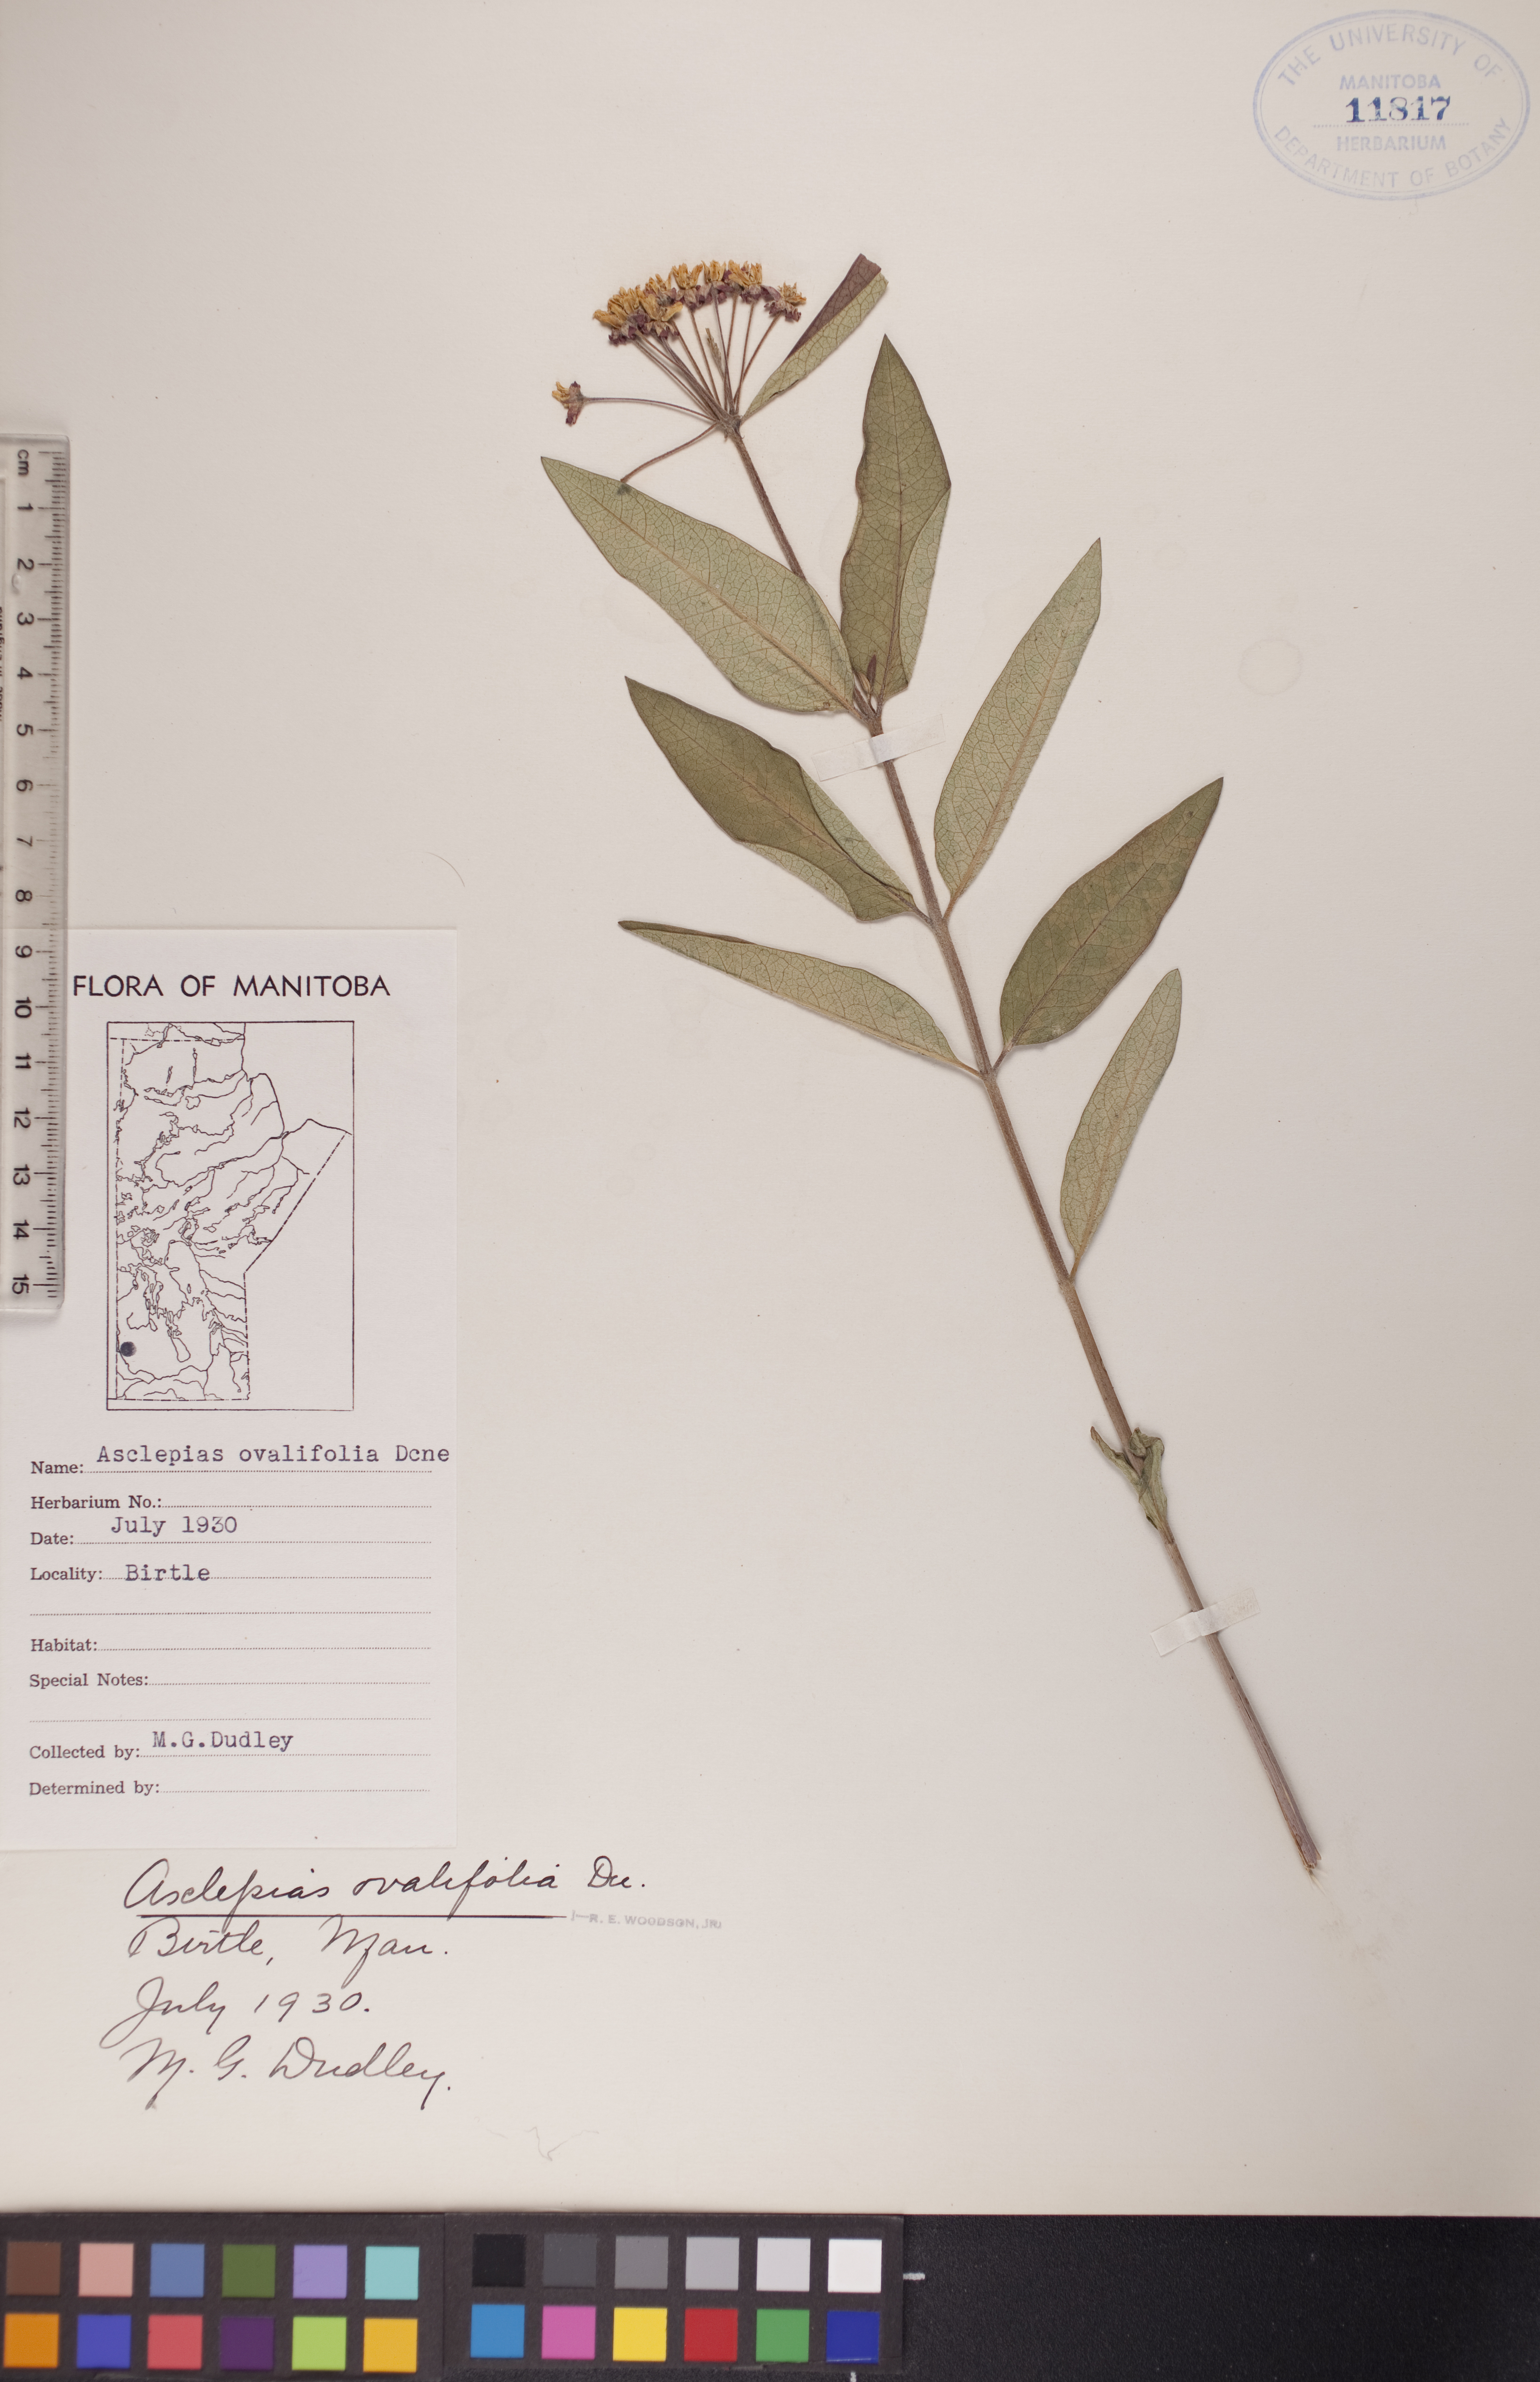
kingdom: Plantae
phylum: Tracheophyta
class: Magnoliopsida
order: Gentianales
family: Apocynaceae
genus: Asclepias
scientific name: Asclepias ovalifolia
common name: Dwarf milkweed
